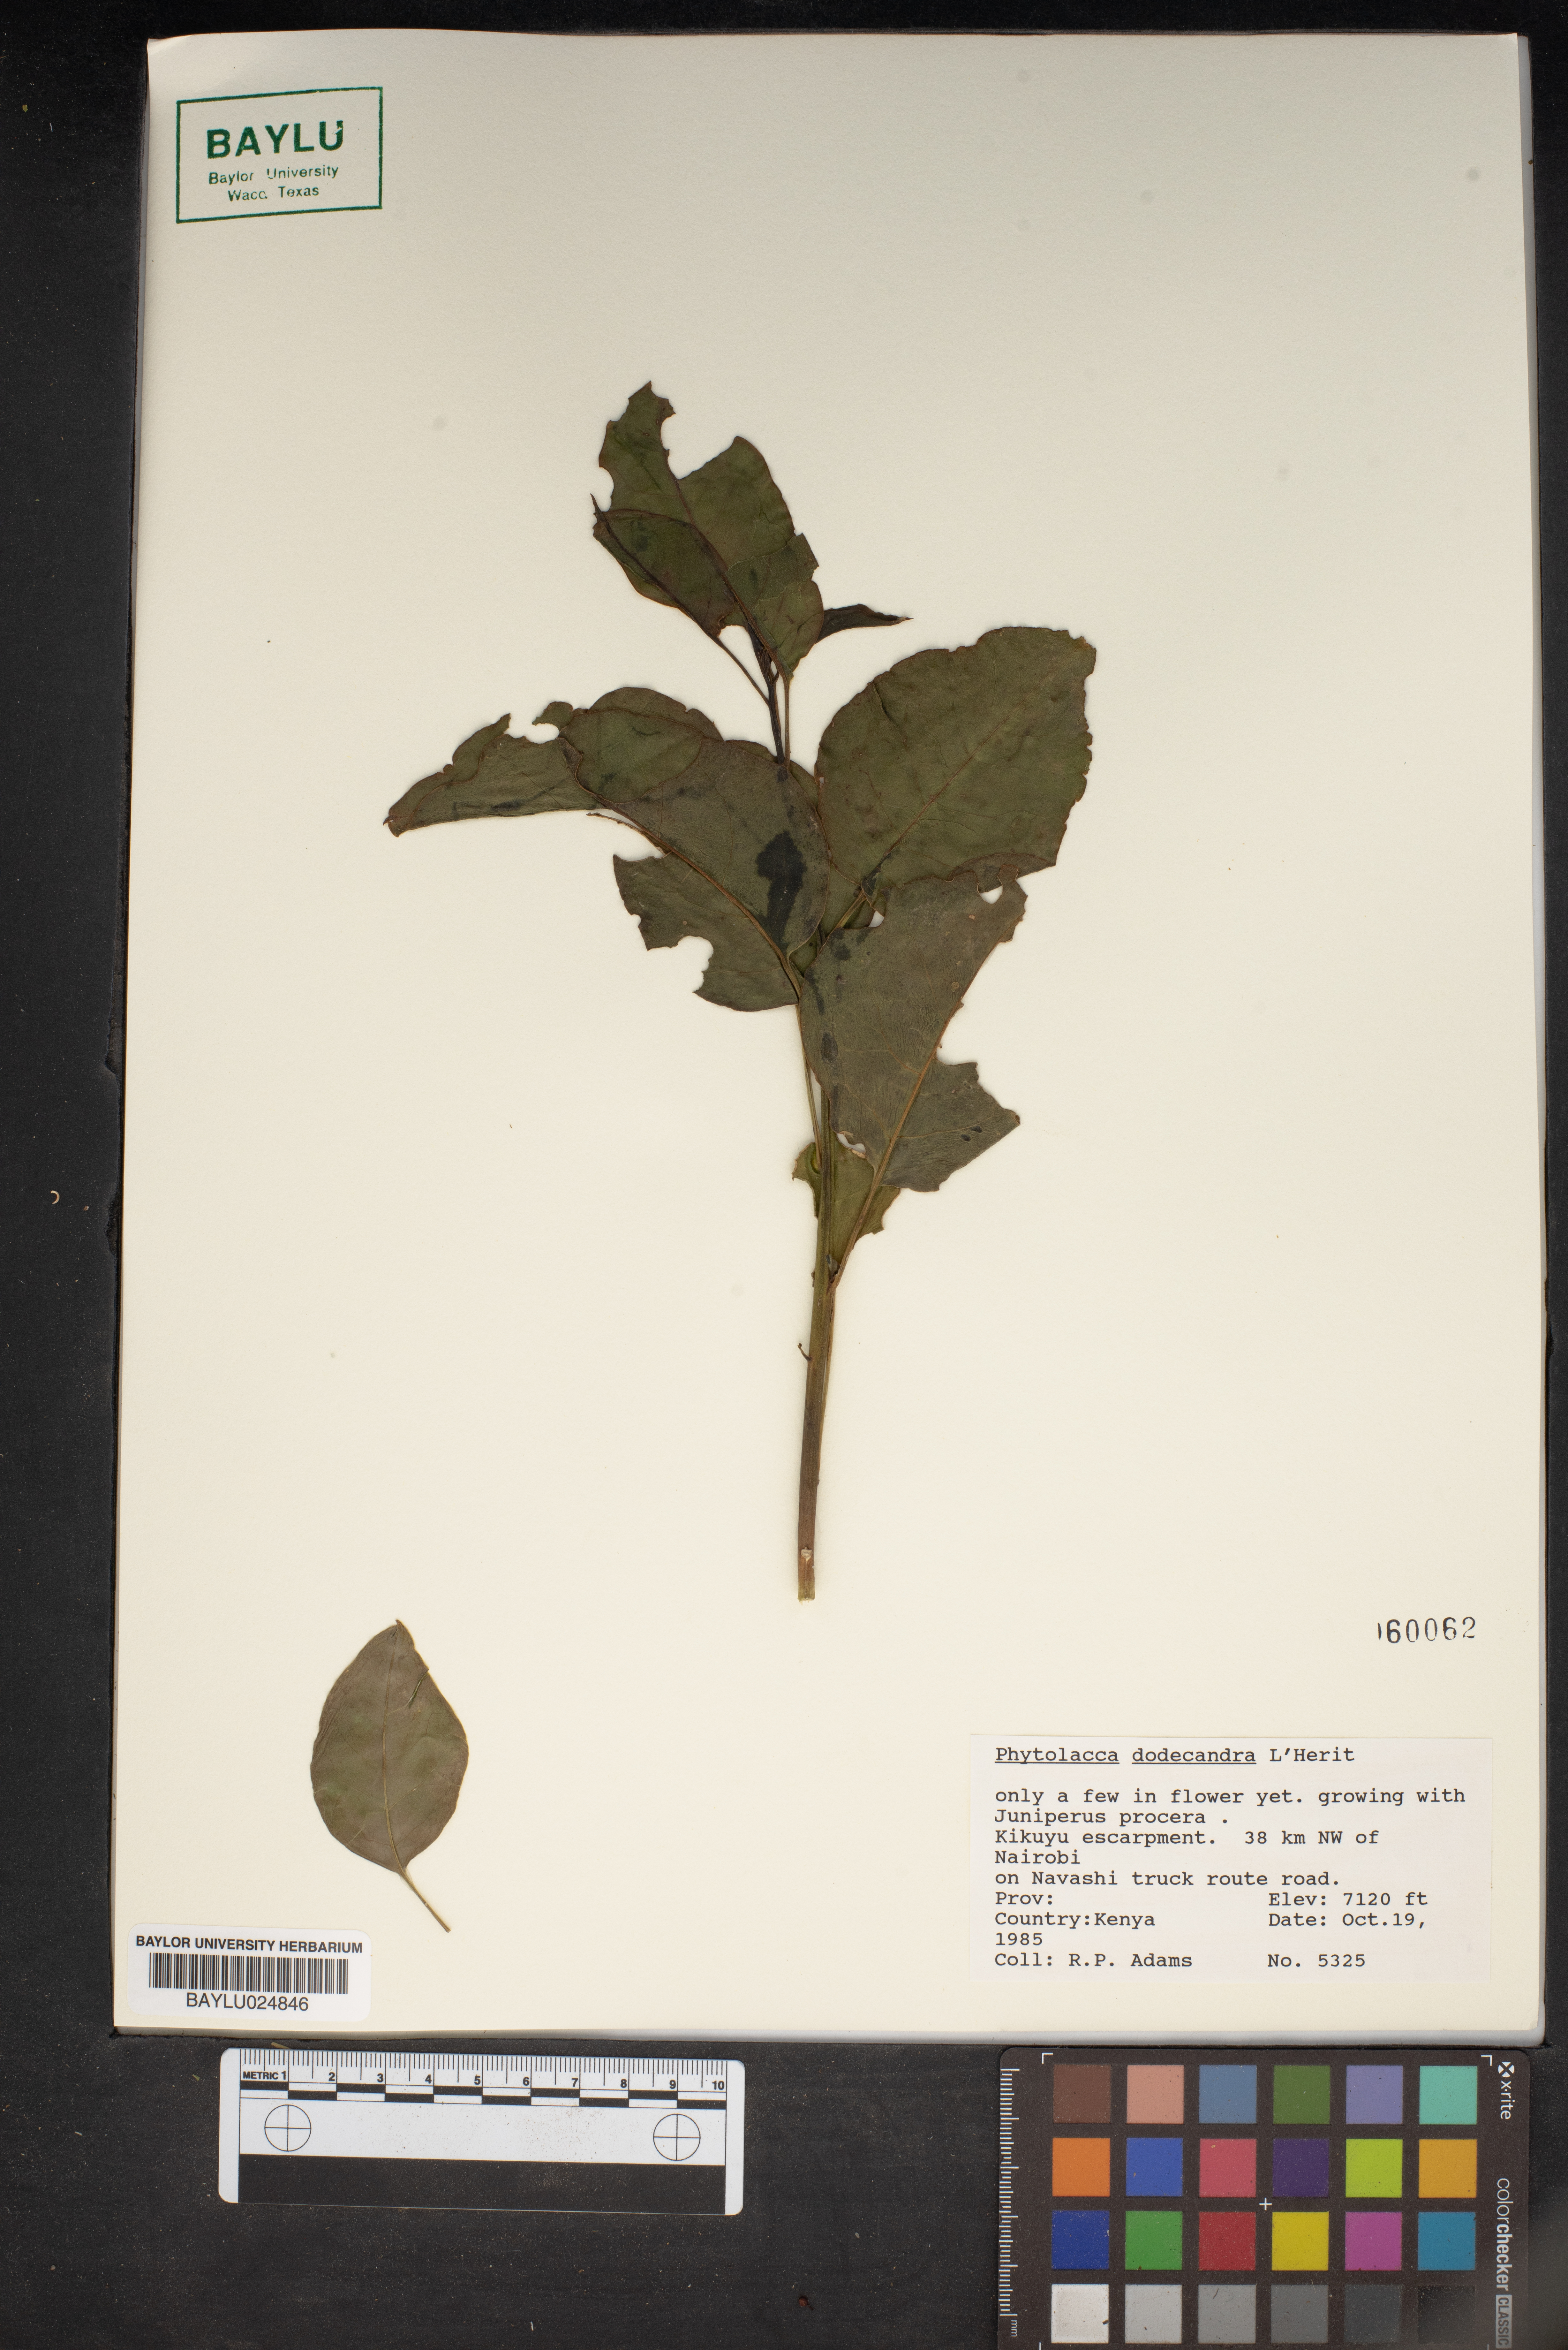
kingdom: Plantae
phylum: Tracheophyta
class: Magnoliopsida
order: Caryophyllales
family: Phytolaccaceae
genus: Phytolacca
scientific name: Phytolacca dodecandra
